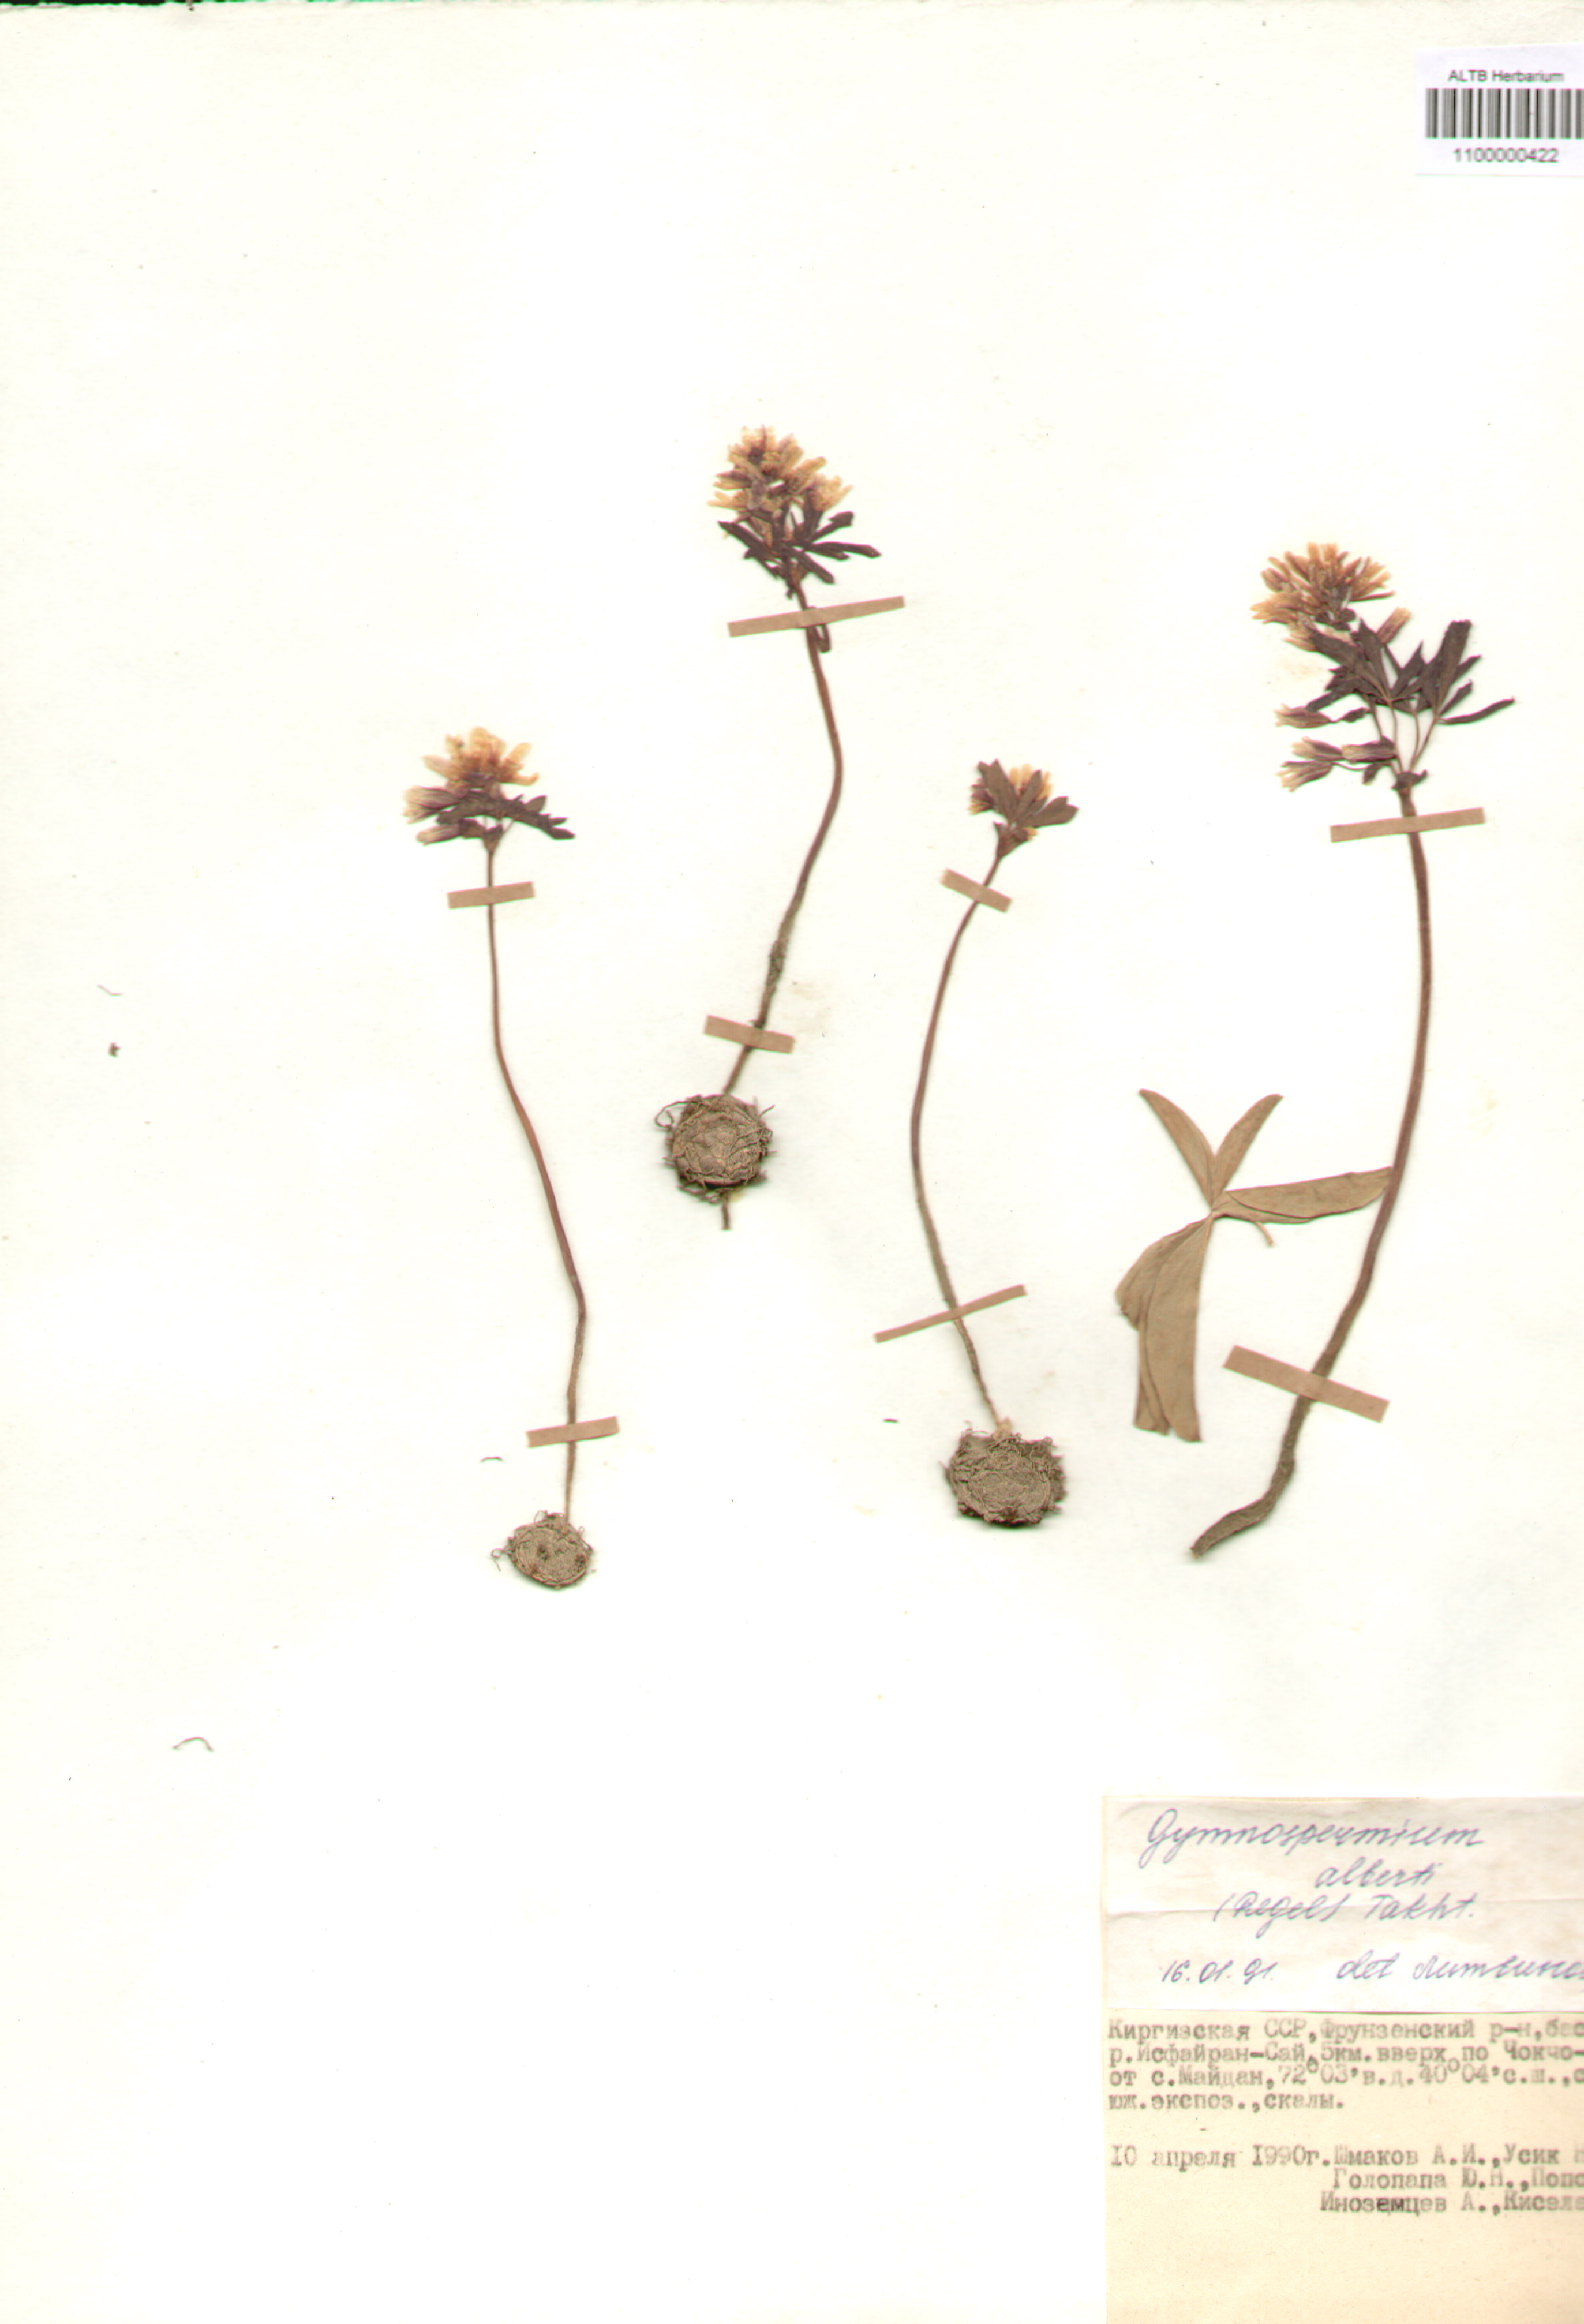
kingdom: Plantae
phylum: Tracheophyta
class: Magnoliopsida
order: Ranunculales
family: Berberidaceae
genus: Gymnospermium
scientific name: Gymnospermium alberti
